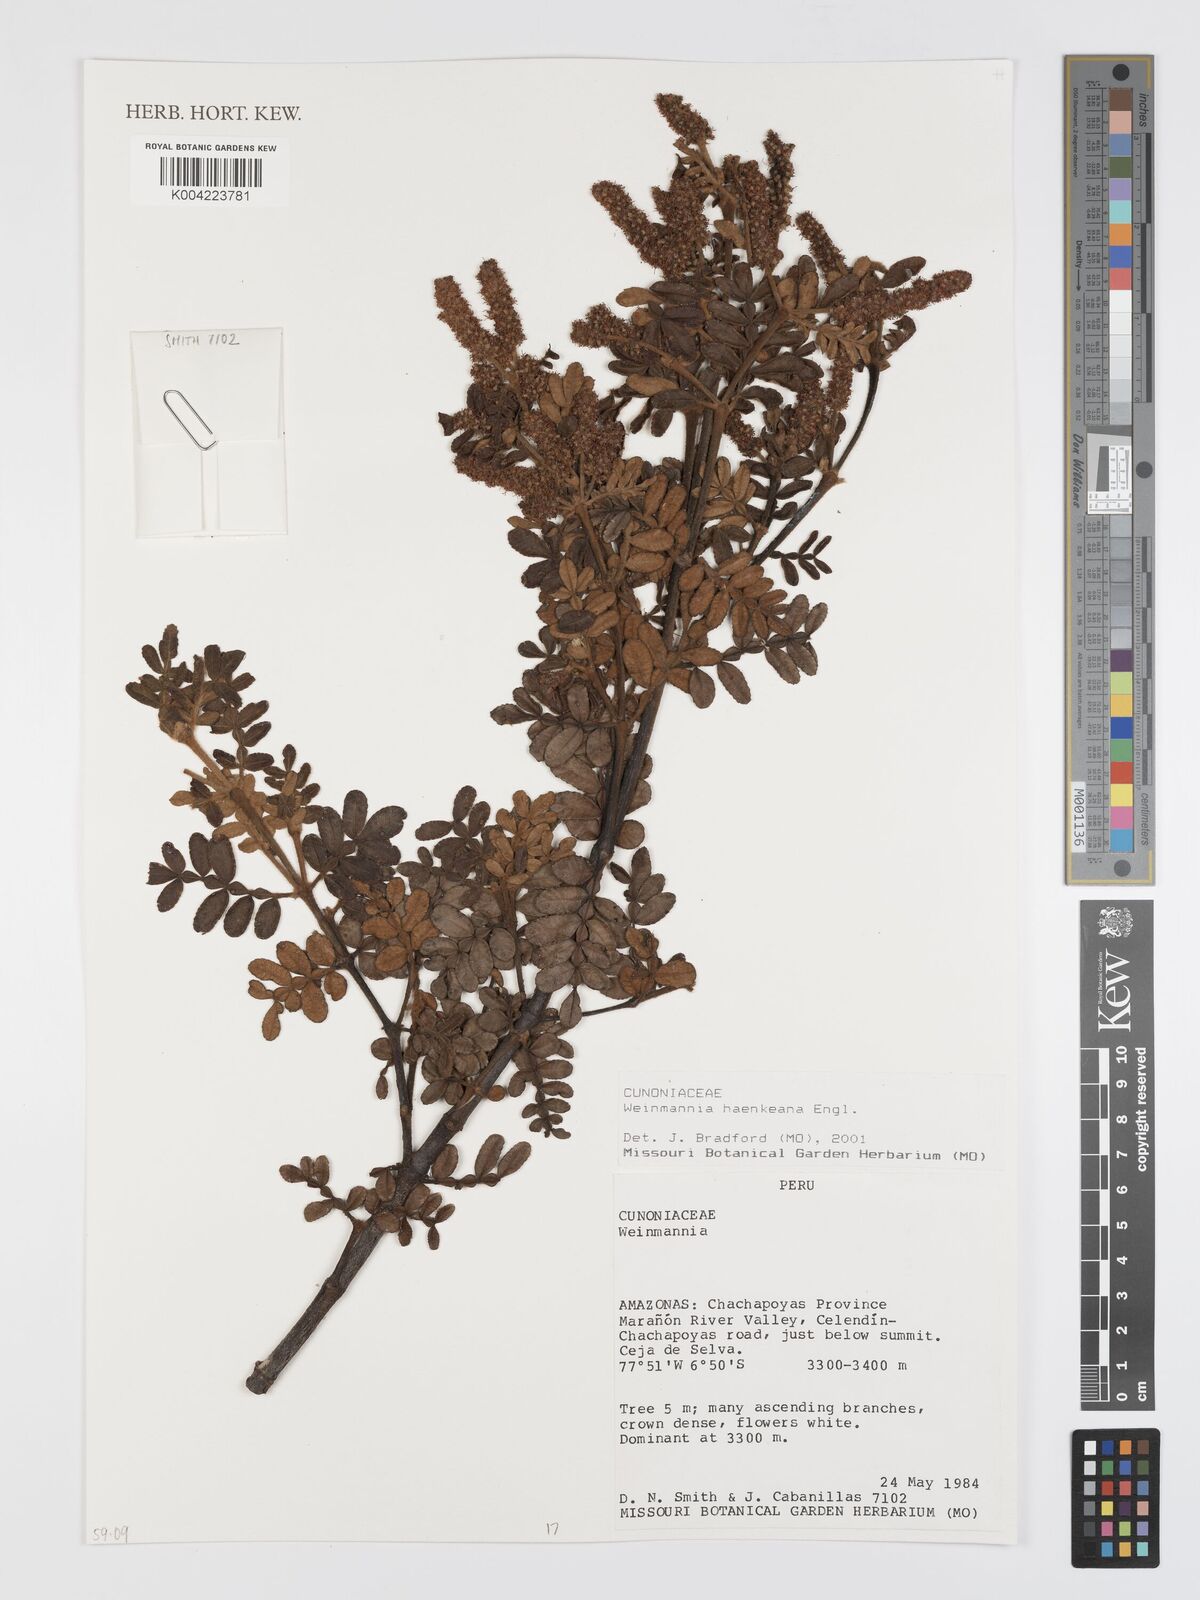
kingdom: Plantae
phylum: Tracheophyta
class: Magnoliopsida
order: Oxalidales
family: Cunoniaceae
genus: Weinmannia
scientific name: Weinmannia haenkeana
